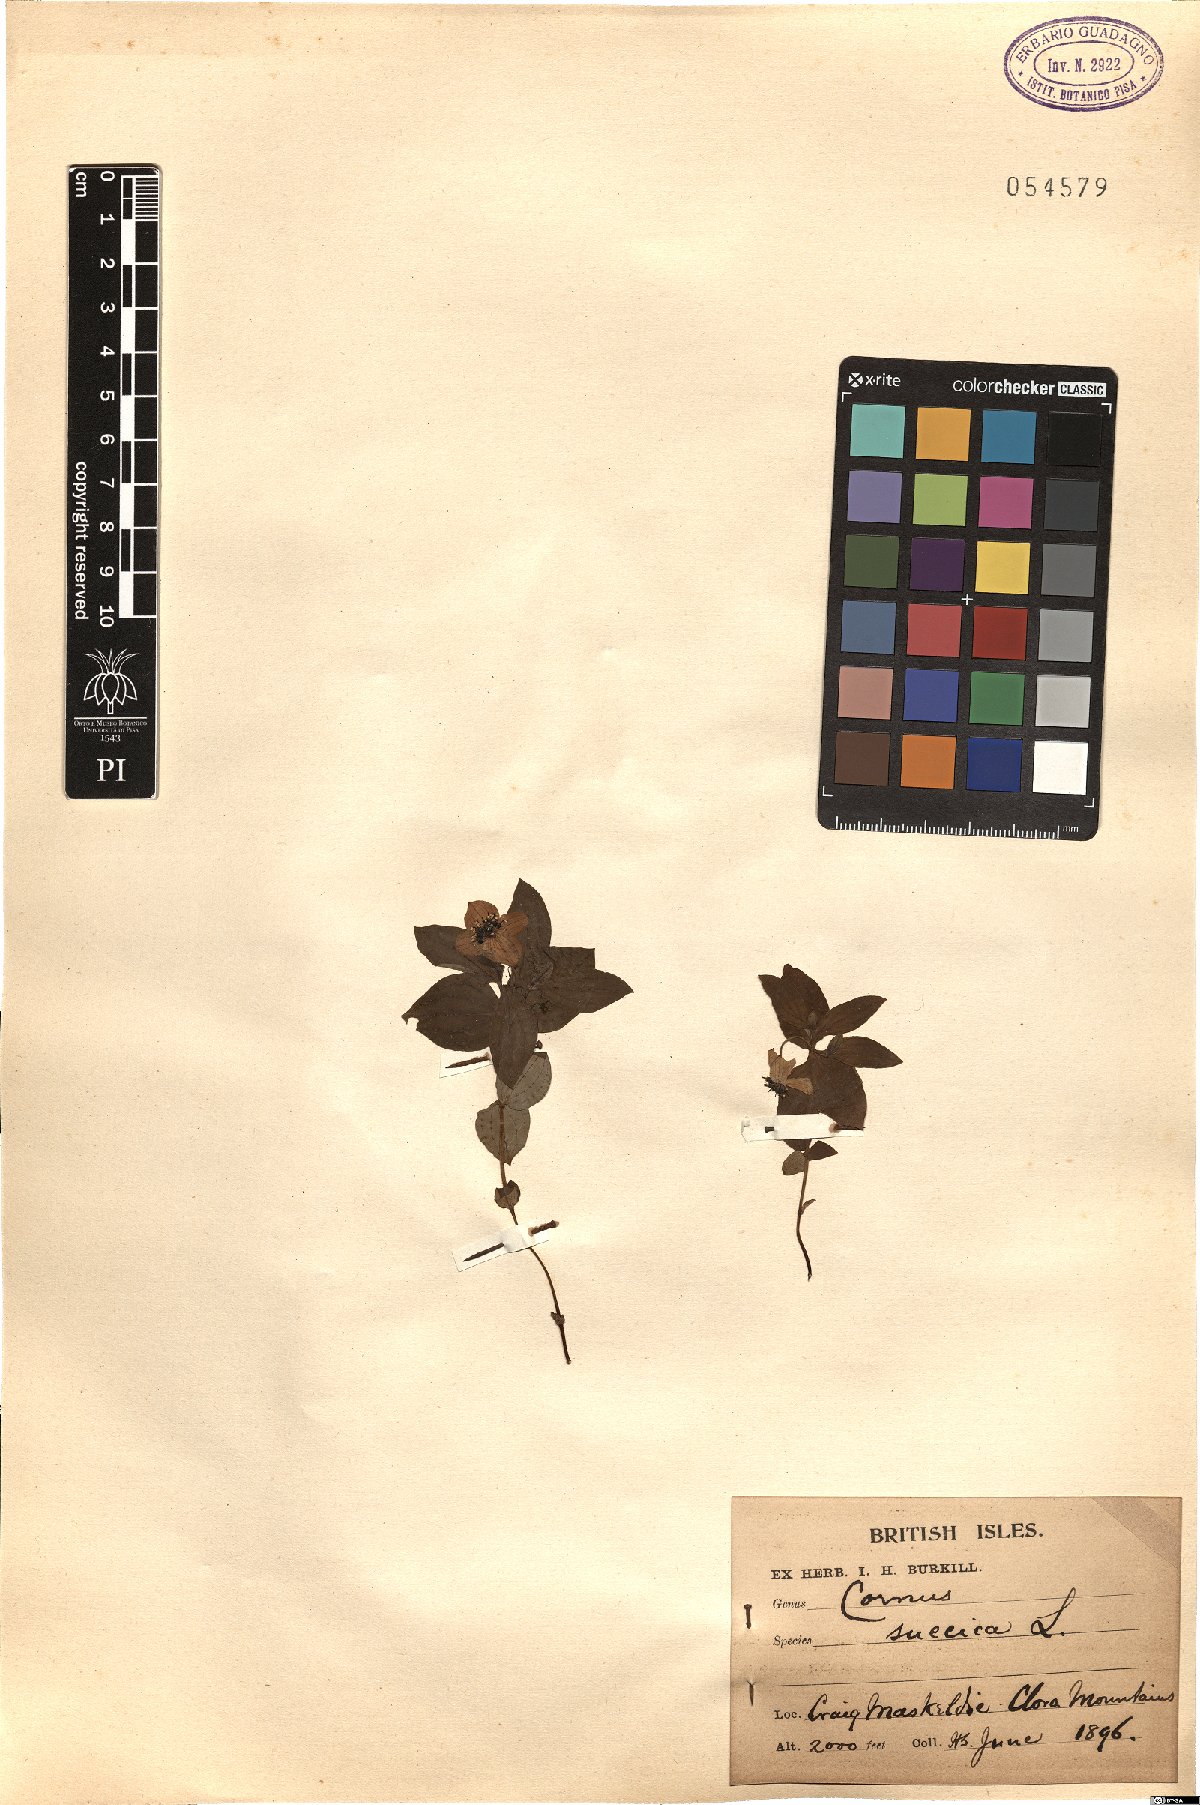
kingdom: Plantae
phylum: Tracheophyta
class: Magnoliopsida
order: Cornales
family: Cornaceae
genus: Cornus
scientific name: Cornus suecica
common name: Dwarf cornel
